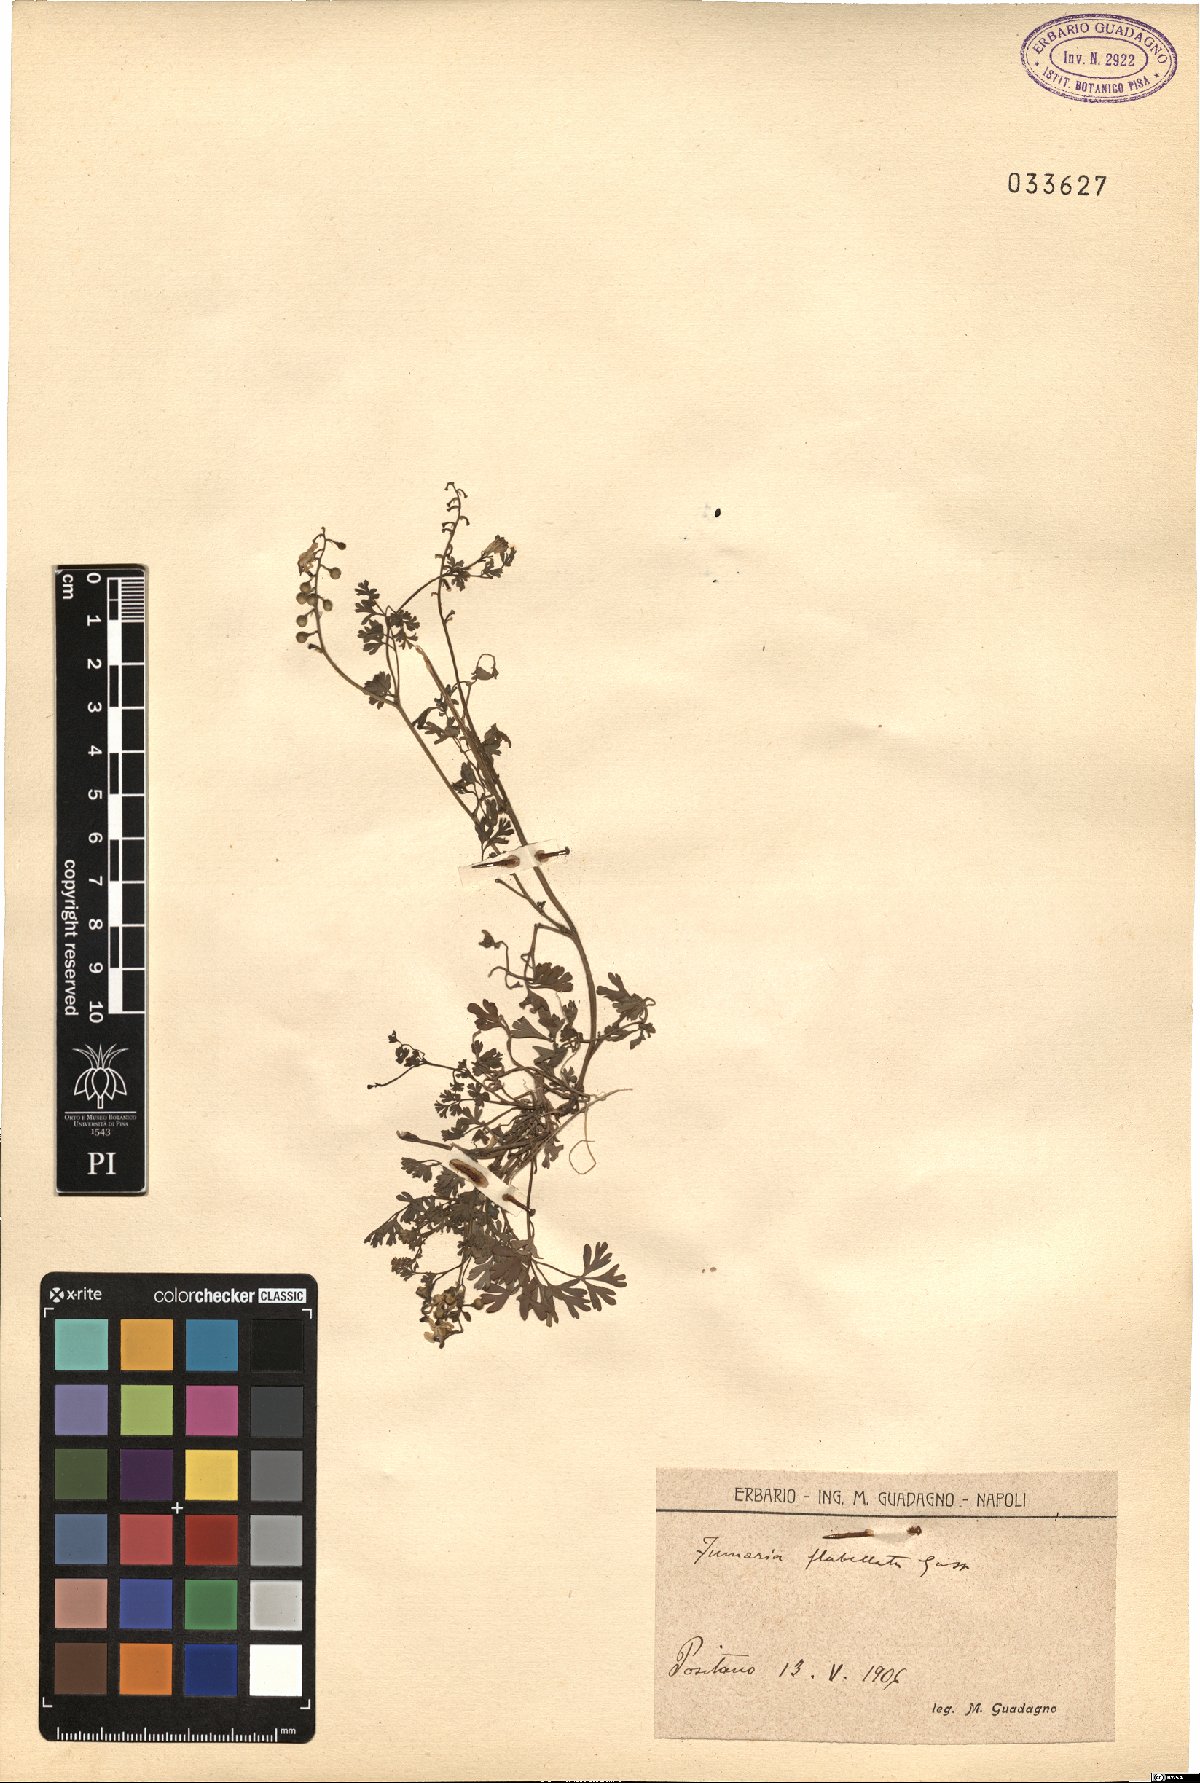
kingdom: Plantae
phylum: Tracheophyta
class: Magnoliopsida
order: Ranunculales
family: Papaveraceae
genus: Fumaria
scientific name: Fumaria flabellata
